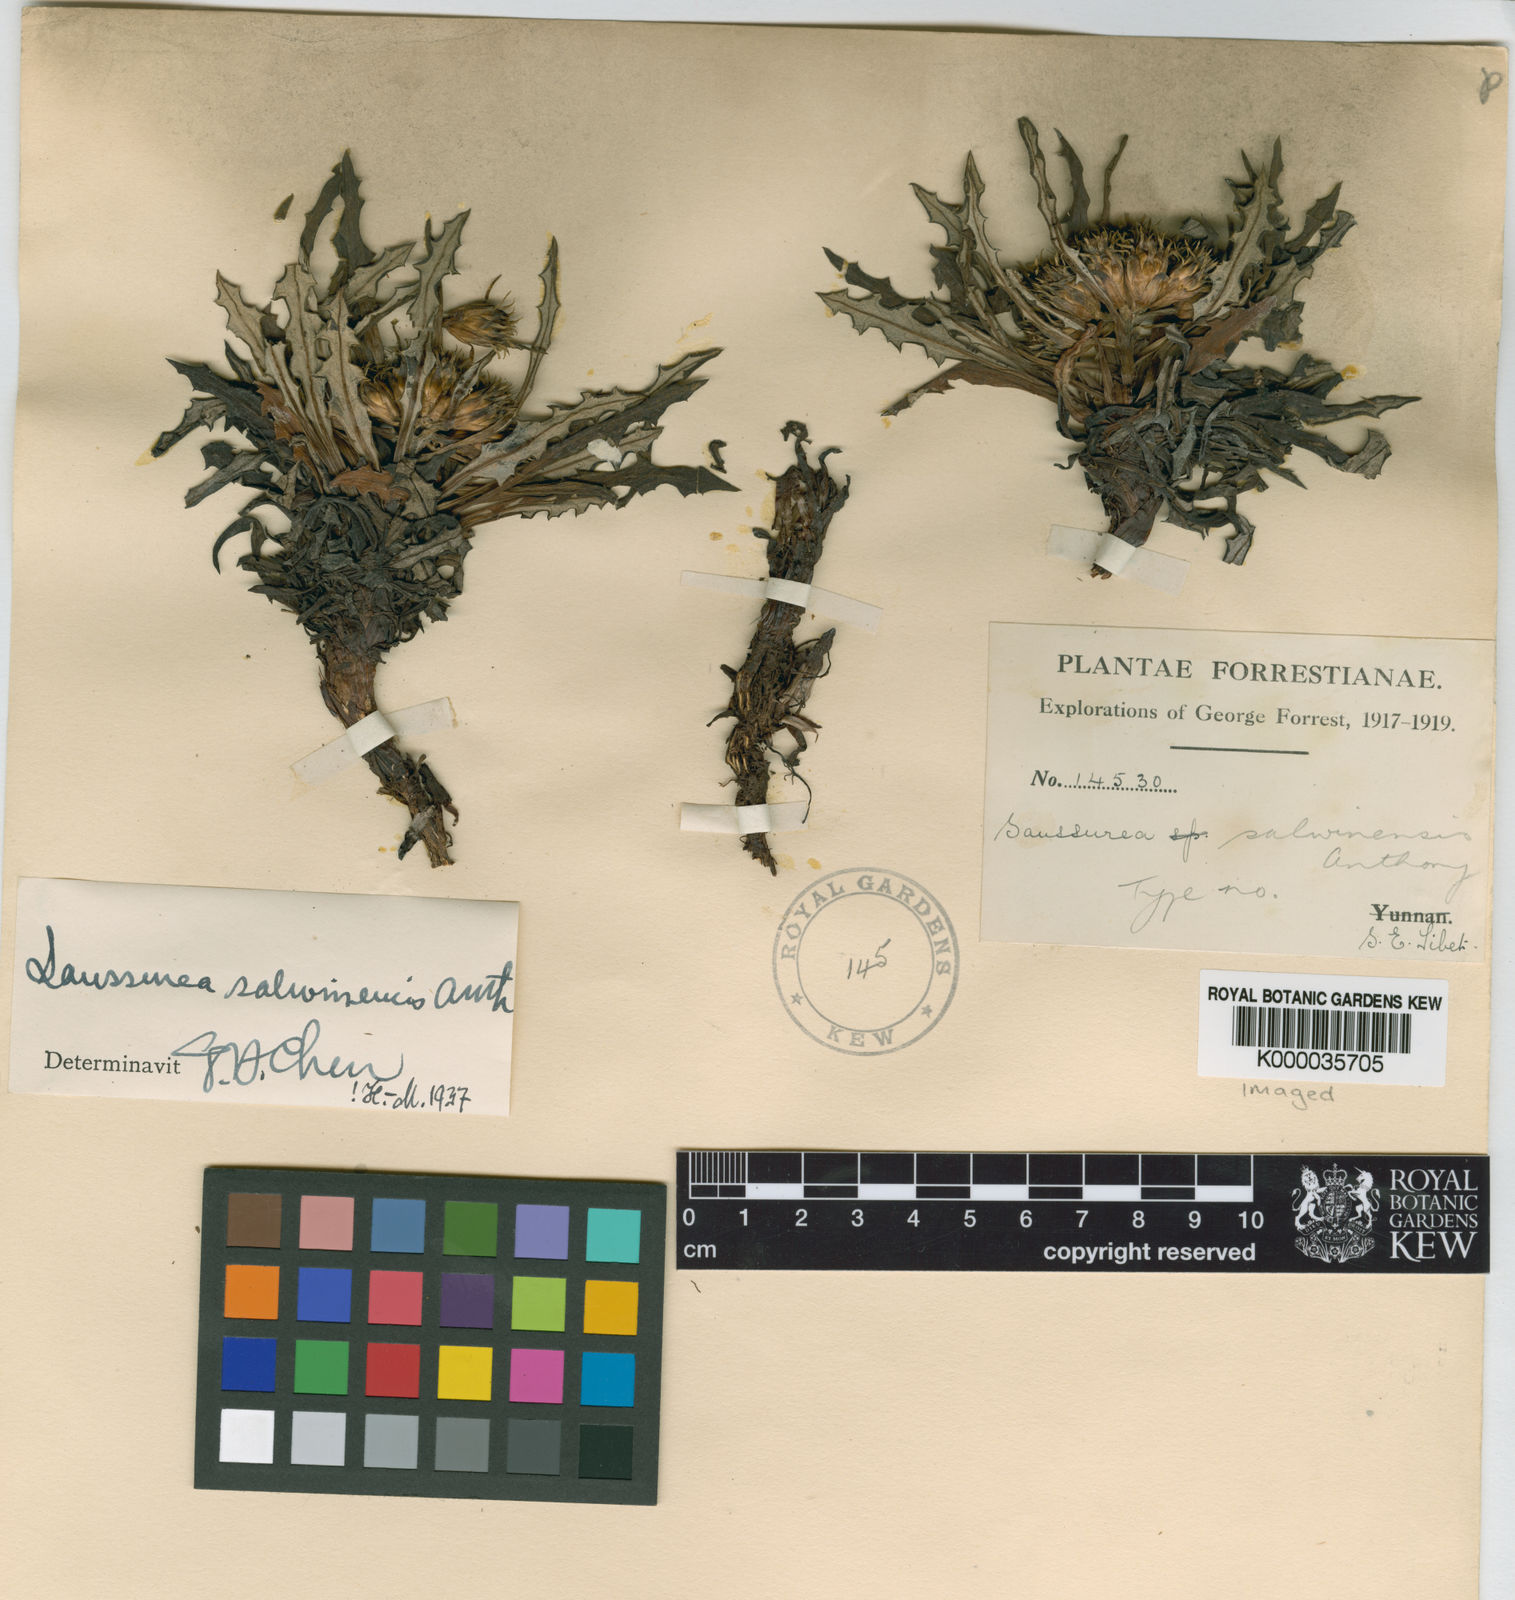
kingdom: Plantae
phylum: Tracheophyta
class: Magnoliopsida
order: Asterales
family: Asteraceae
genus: Saussurea
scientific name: Saussurea salwinensis
